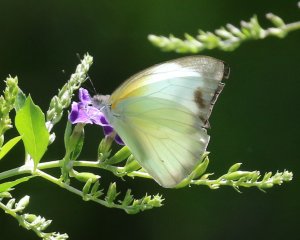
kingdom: Animalia
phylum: Arthropoda
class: Insecta
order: Lepidoptera
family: Pieridae
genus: Glutophrissa
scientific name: Glutophrissa drusilla
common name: Florida White
